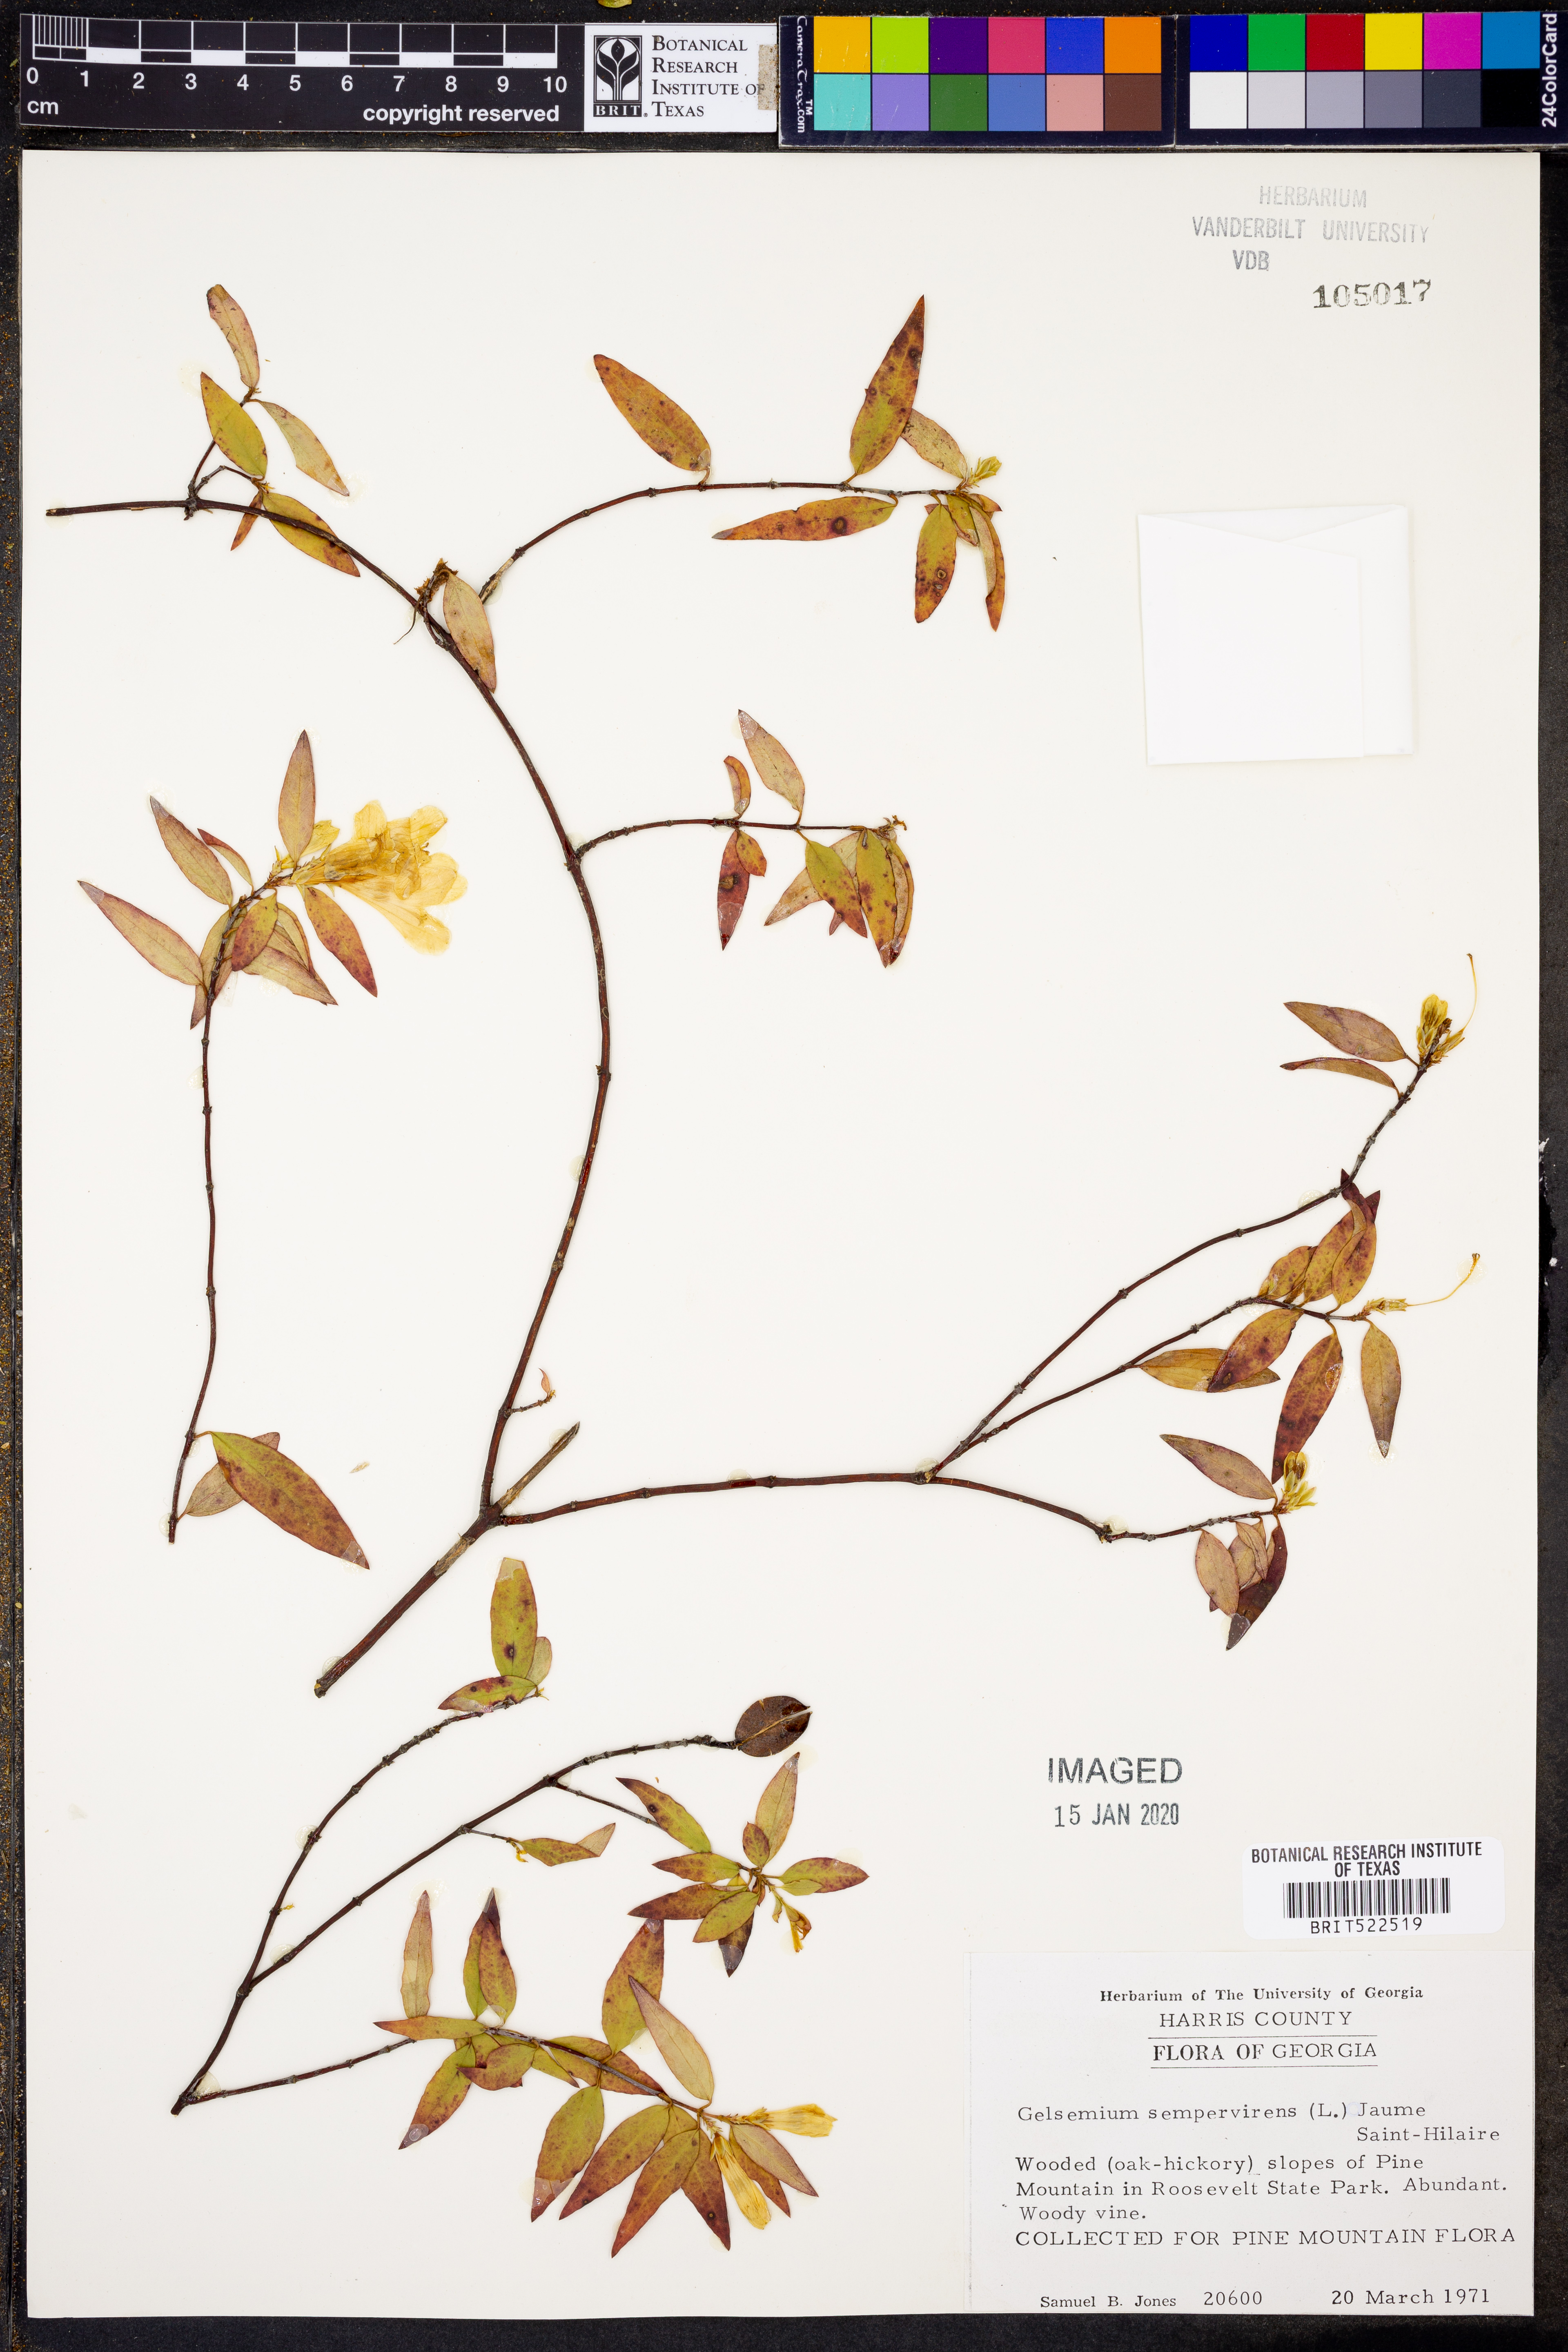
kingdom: Plantae
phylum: Tracheophyta
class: Magnoliopsida
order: Gentianales
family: Gelsemiaceae
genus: Gelsemium
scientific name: Gelsemium sempervirens
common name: Carolina-jasmine
